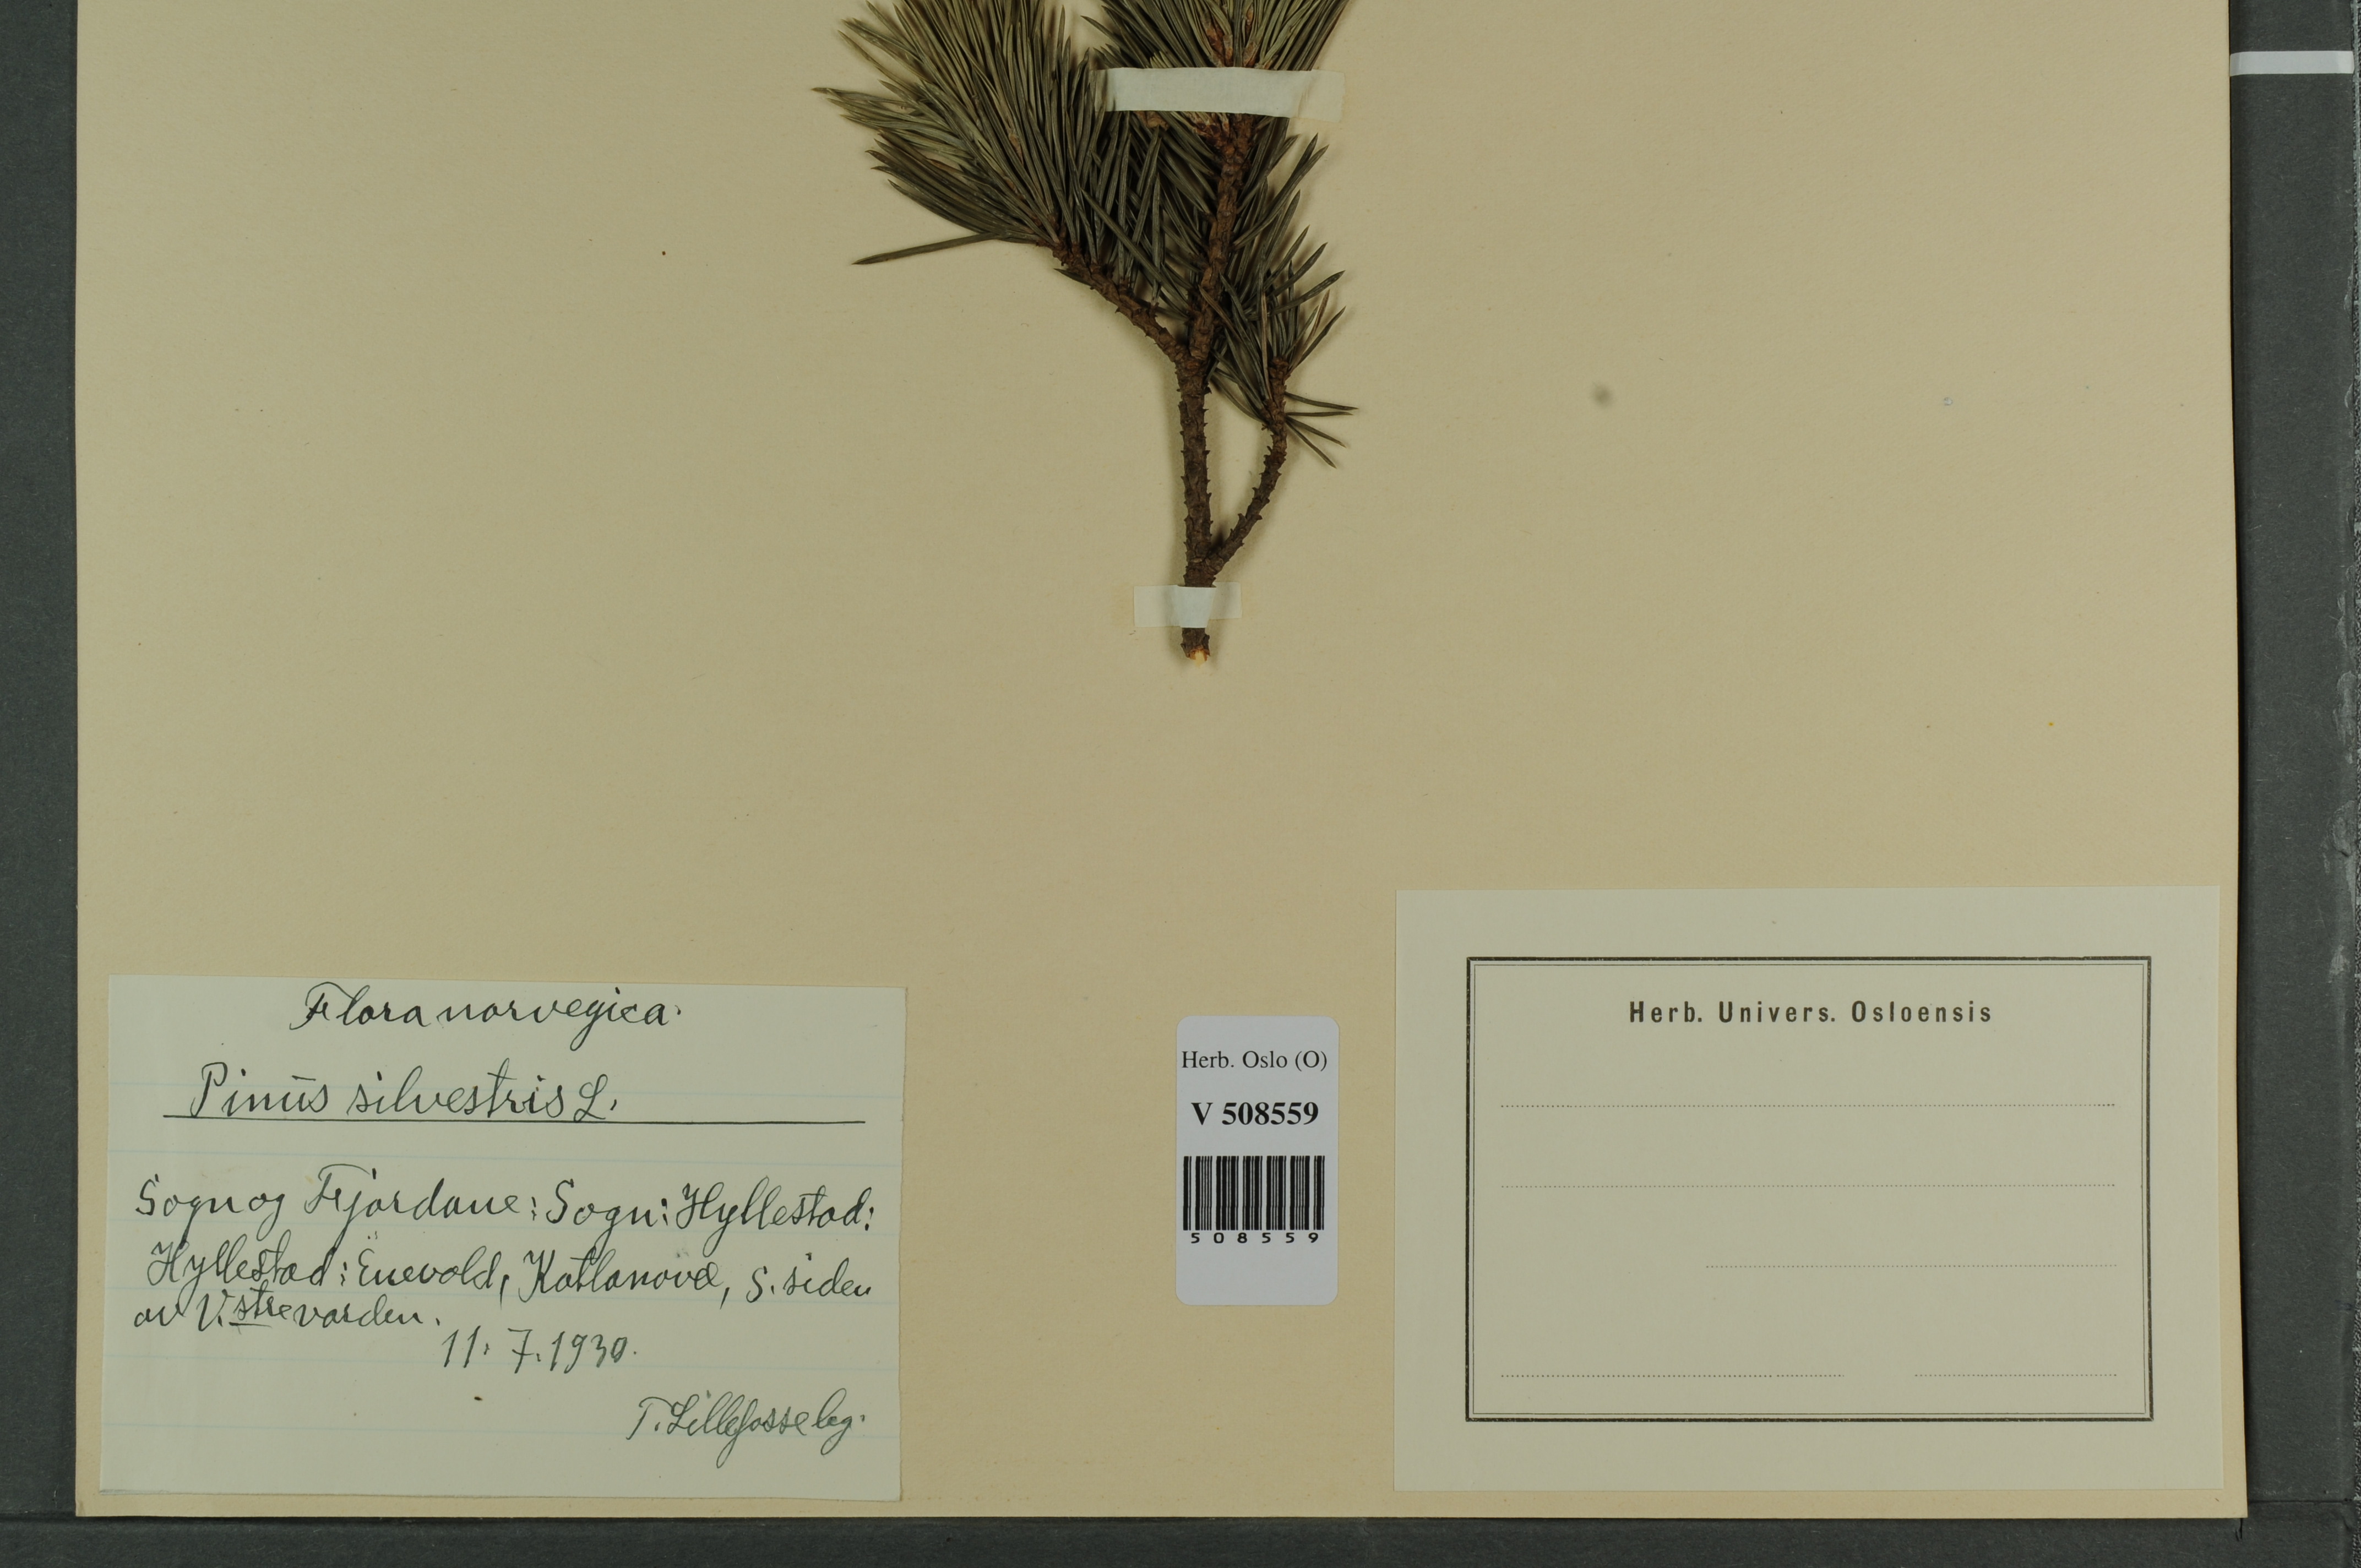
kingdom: Plantae
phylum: Tracheophyta
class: Pinopsida
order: Pinales
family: Pinaceae
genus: Pinus
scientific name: Pinus sylvestris
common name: Scots pine
